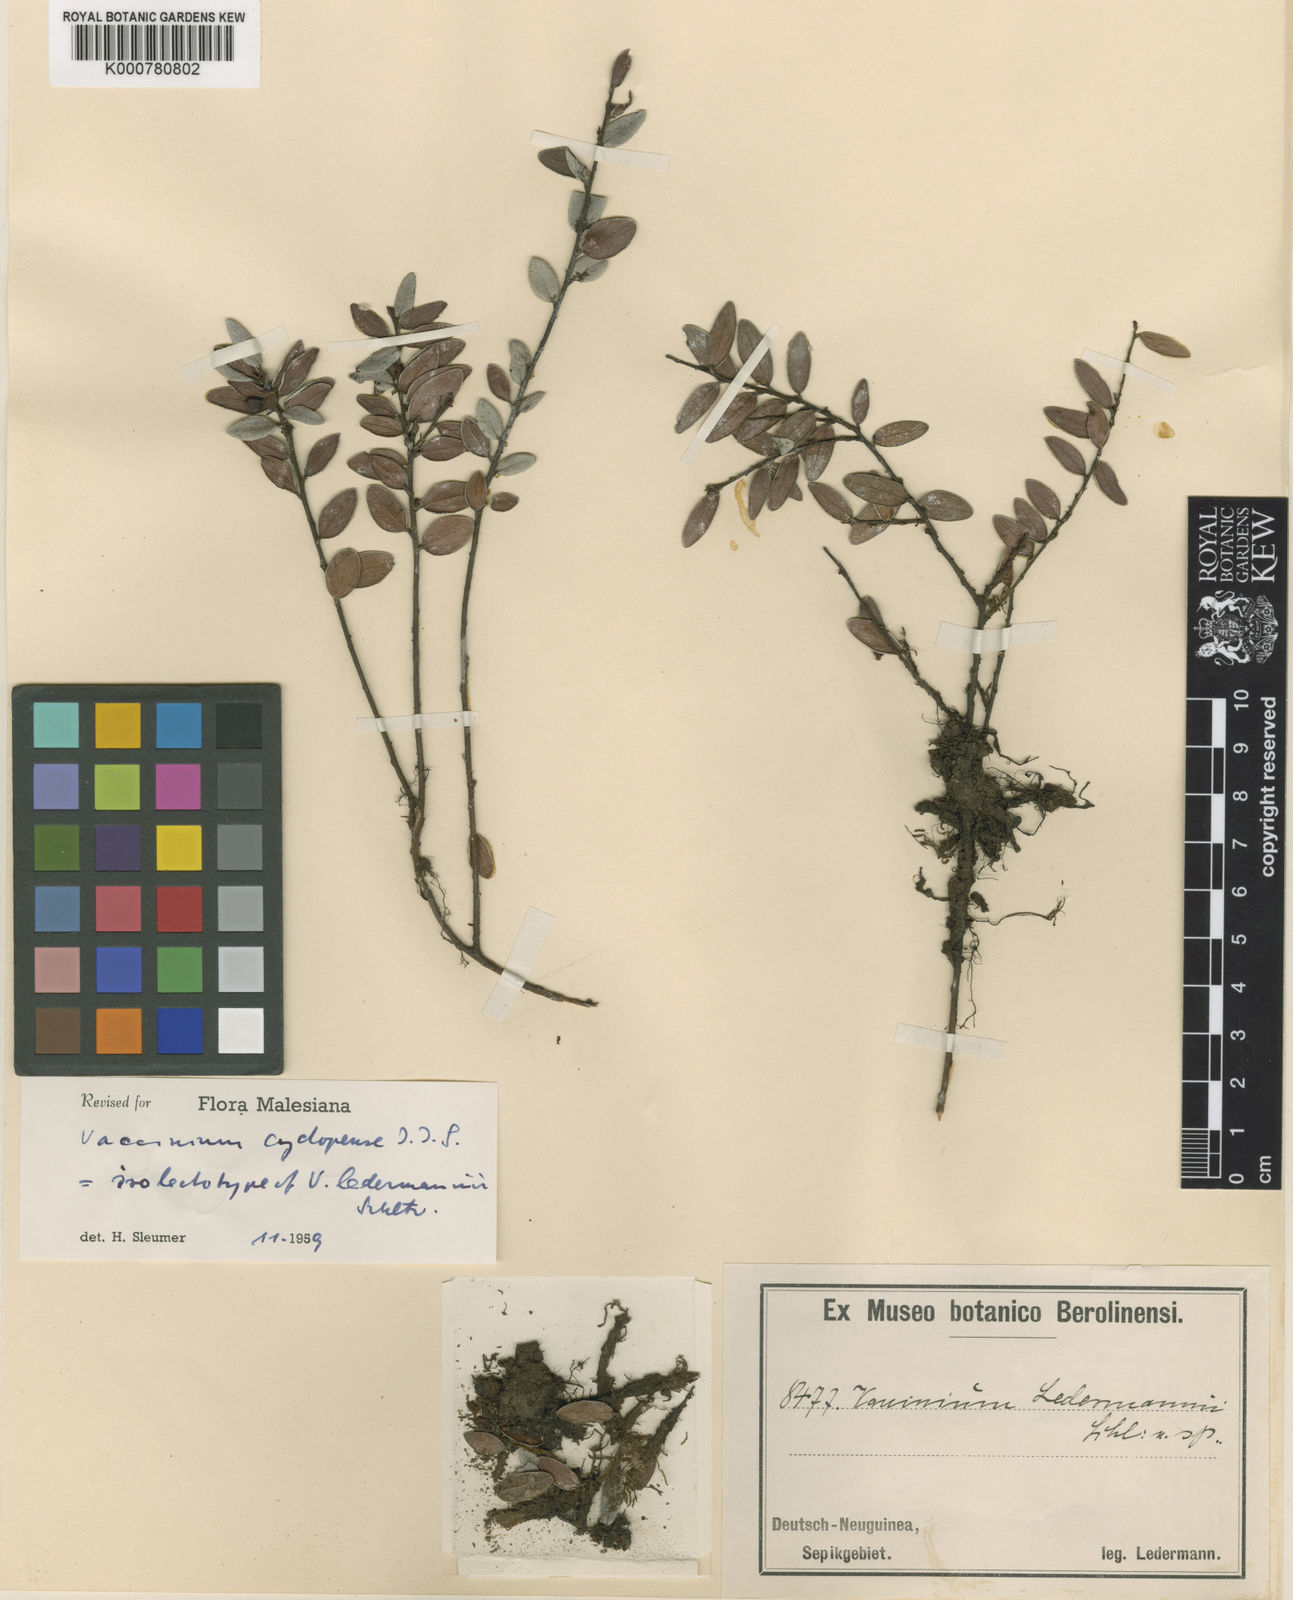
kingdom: Plantae
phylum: Tracheophyta
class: Magnoliopsida
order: Ericales
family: Ericaceae
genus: Vaccinium
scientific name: Vaccinium cyclopense
